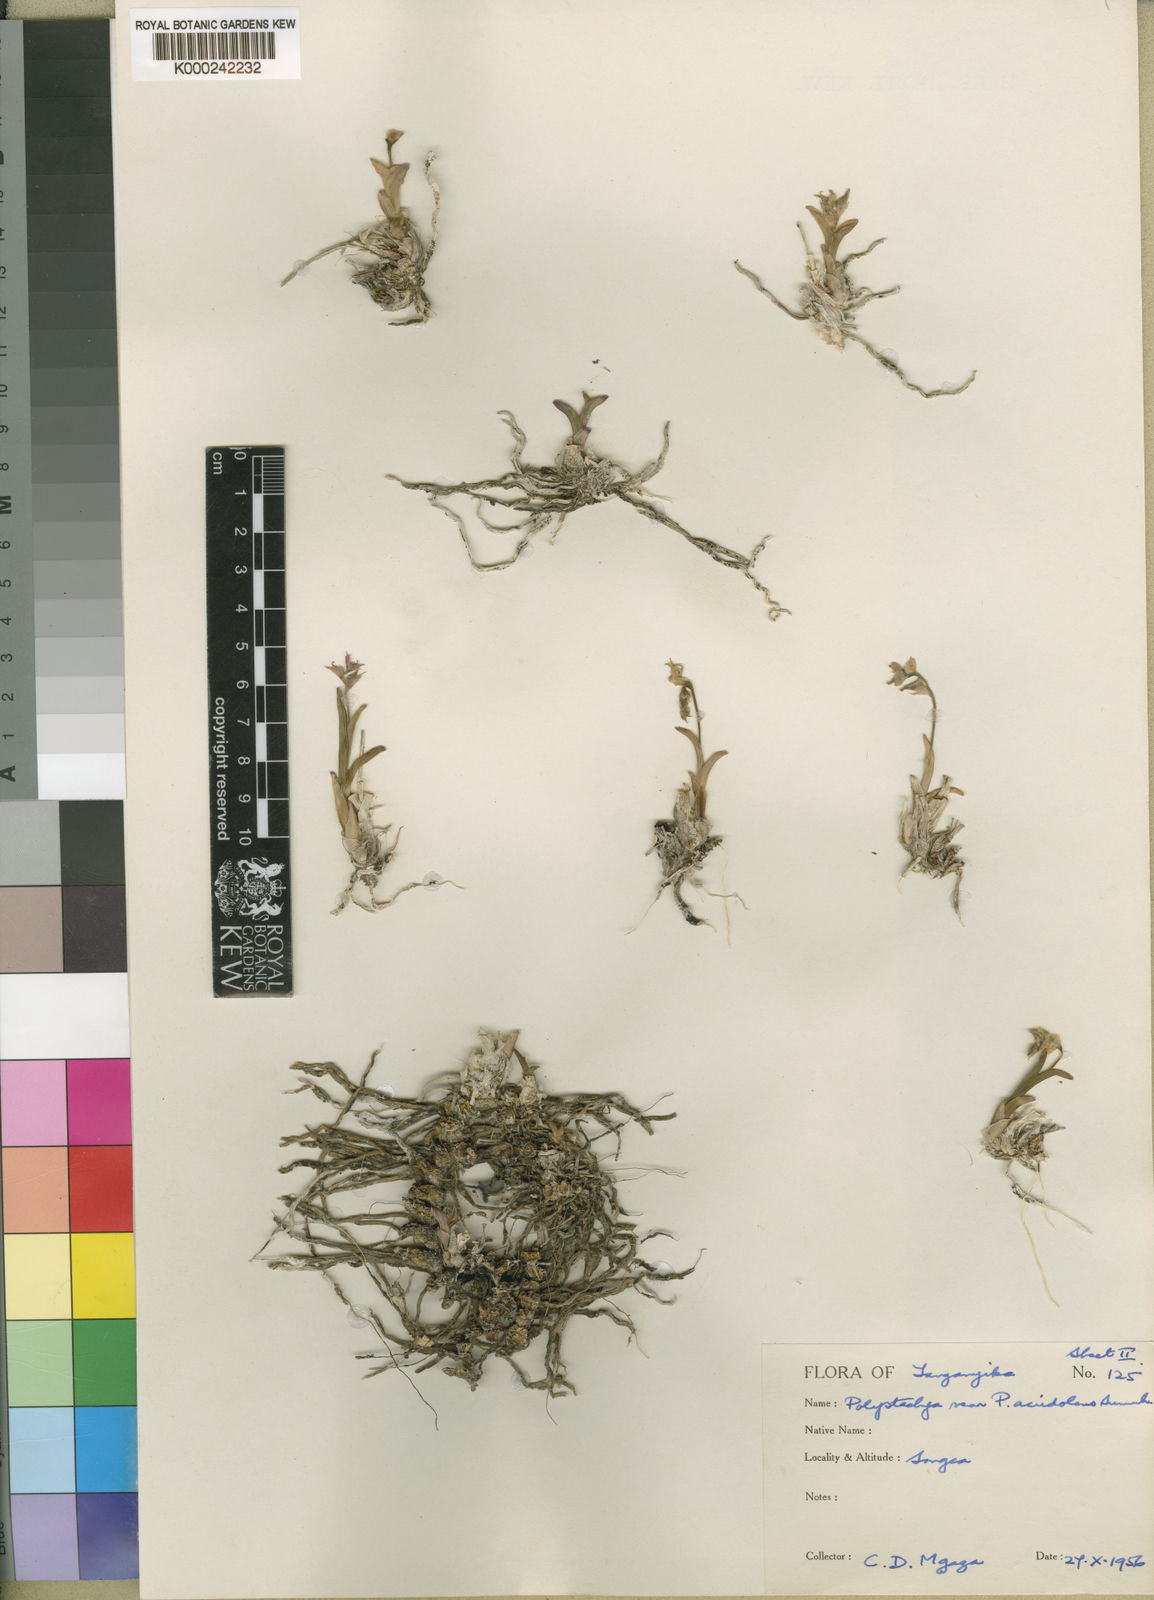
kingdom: Plantae
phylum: Tracheophyta
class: Liliopsida
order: Asparagales
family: Orchidaceae
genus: Polystachya
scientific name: Polystachya magnibracteata
